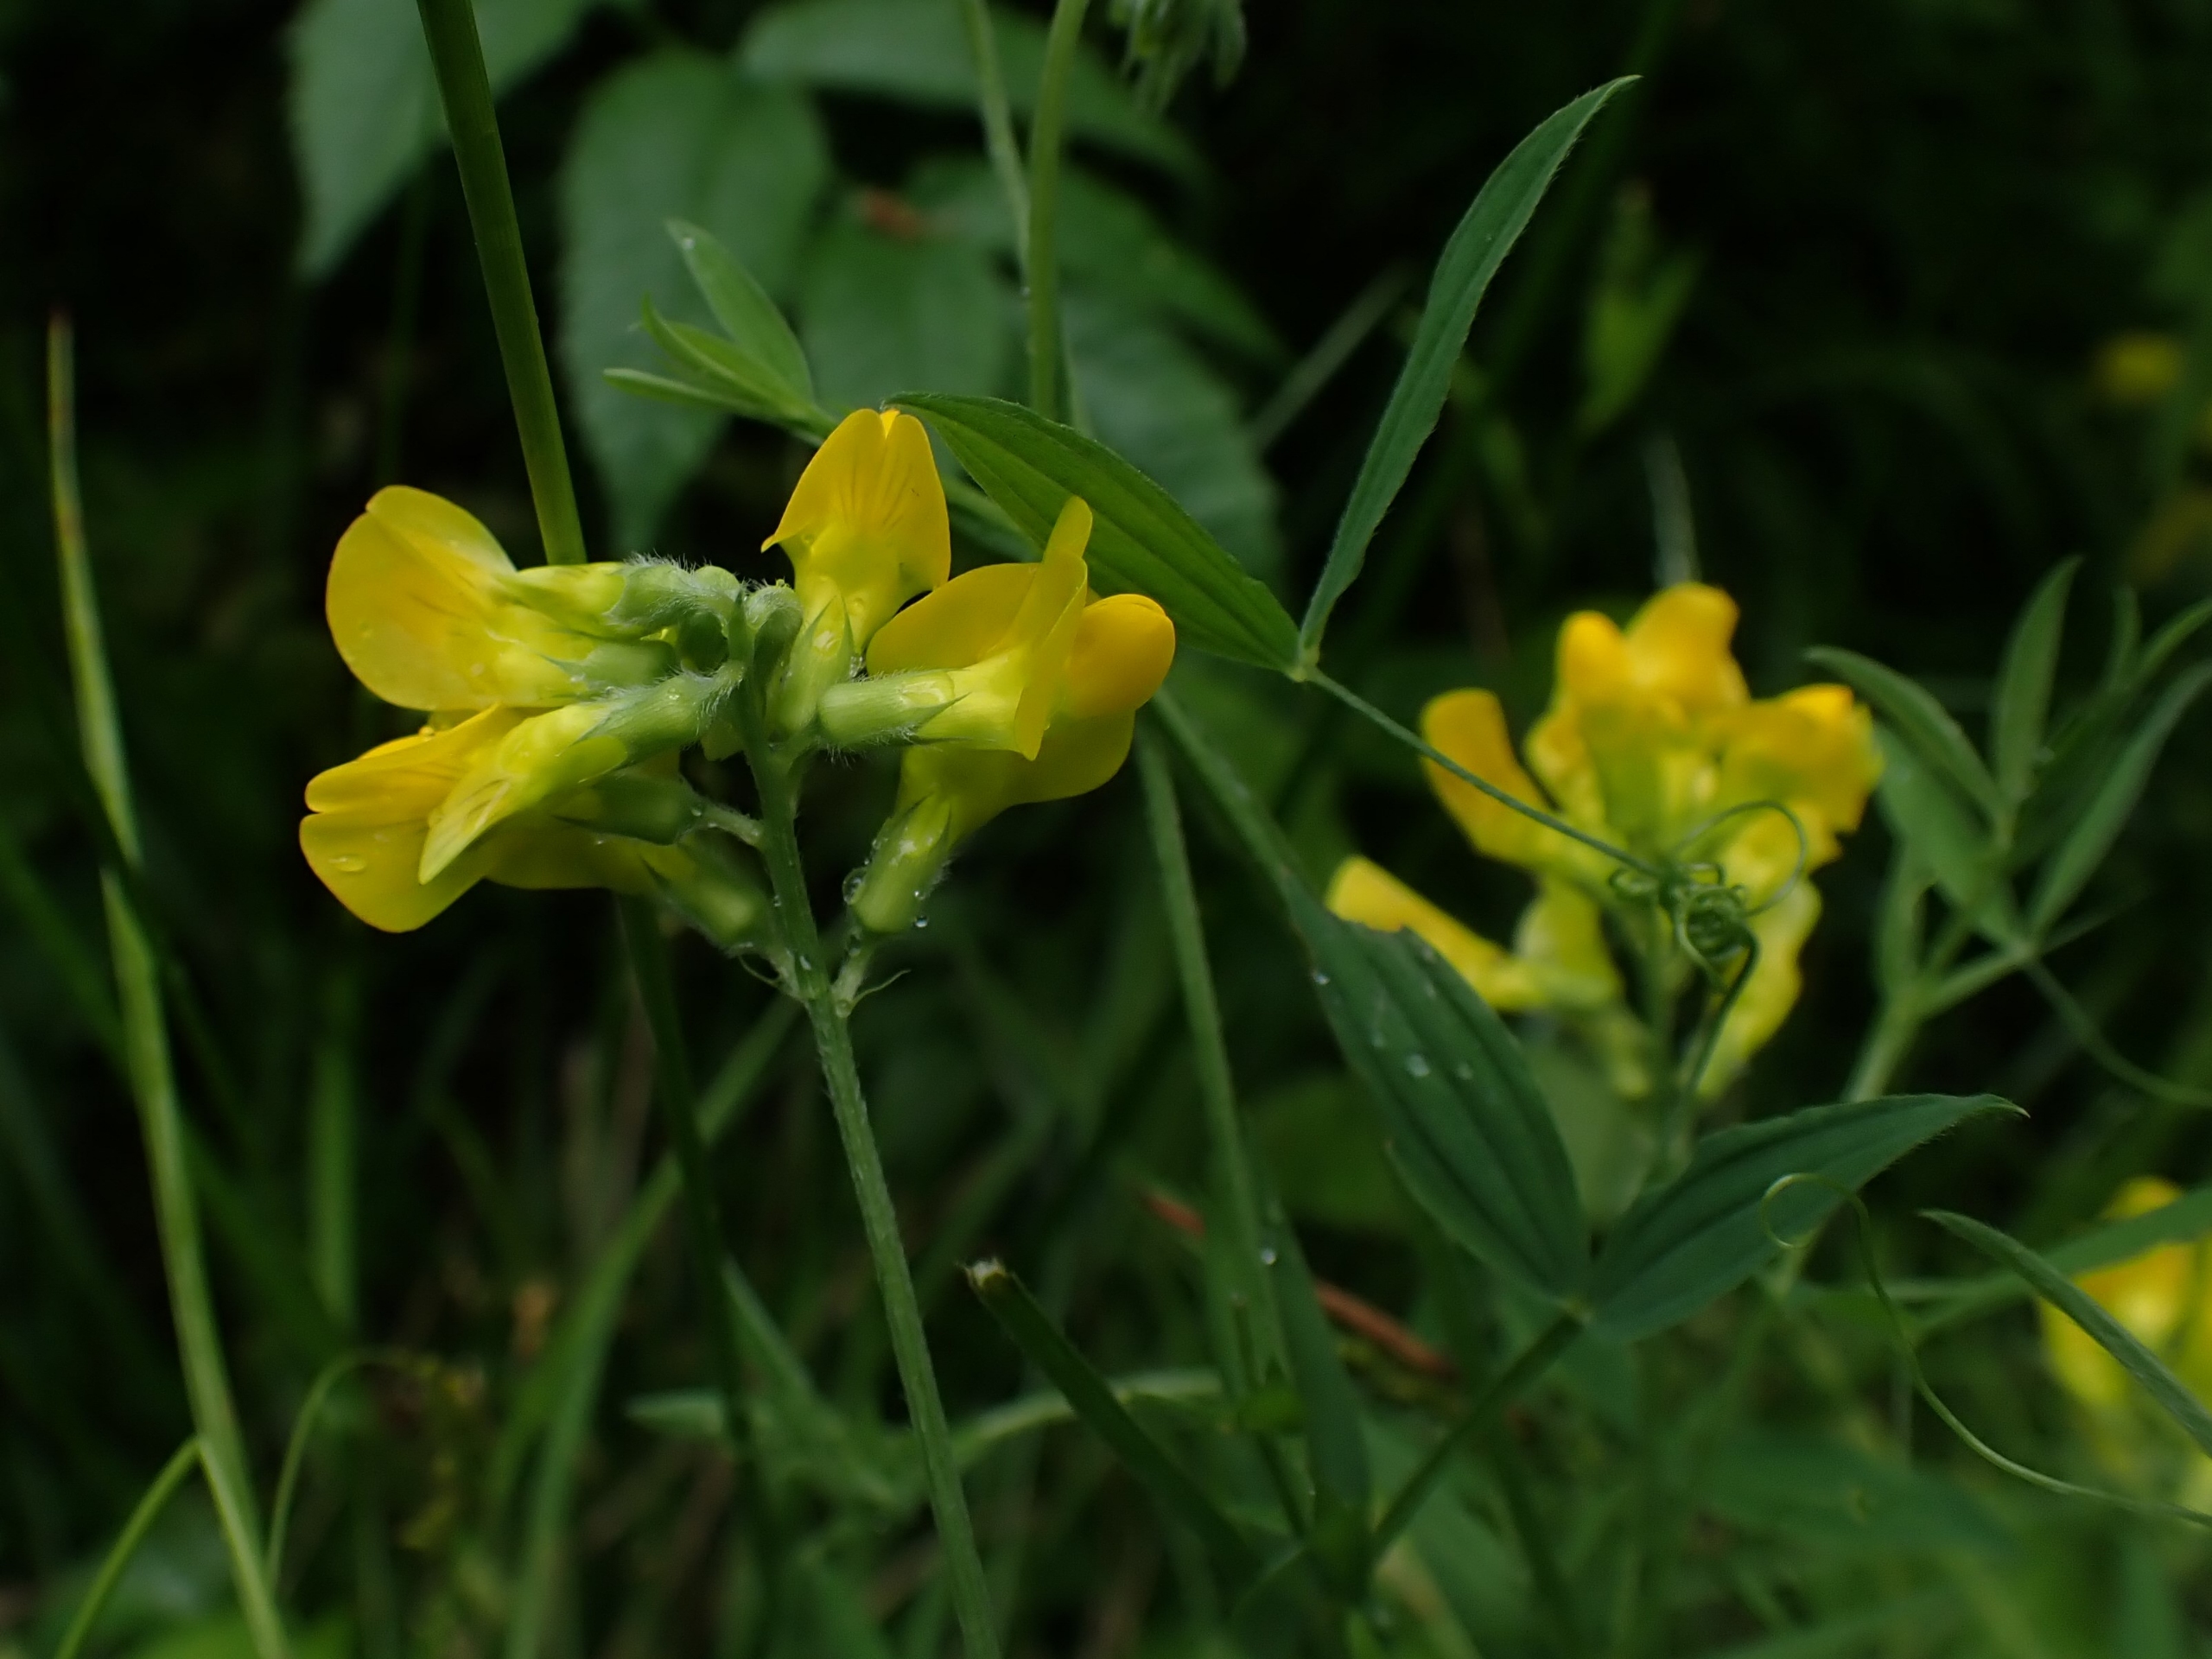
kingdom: Plantae
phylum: Tracheophyta
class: Magnoliopsida
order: Fabales
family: Fabaceae
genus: Lathyrus
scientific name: Lathyrus pratensis
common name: Gul fladbælg
